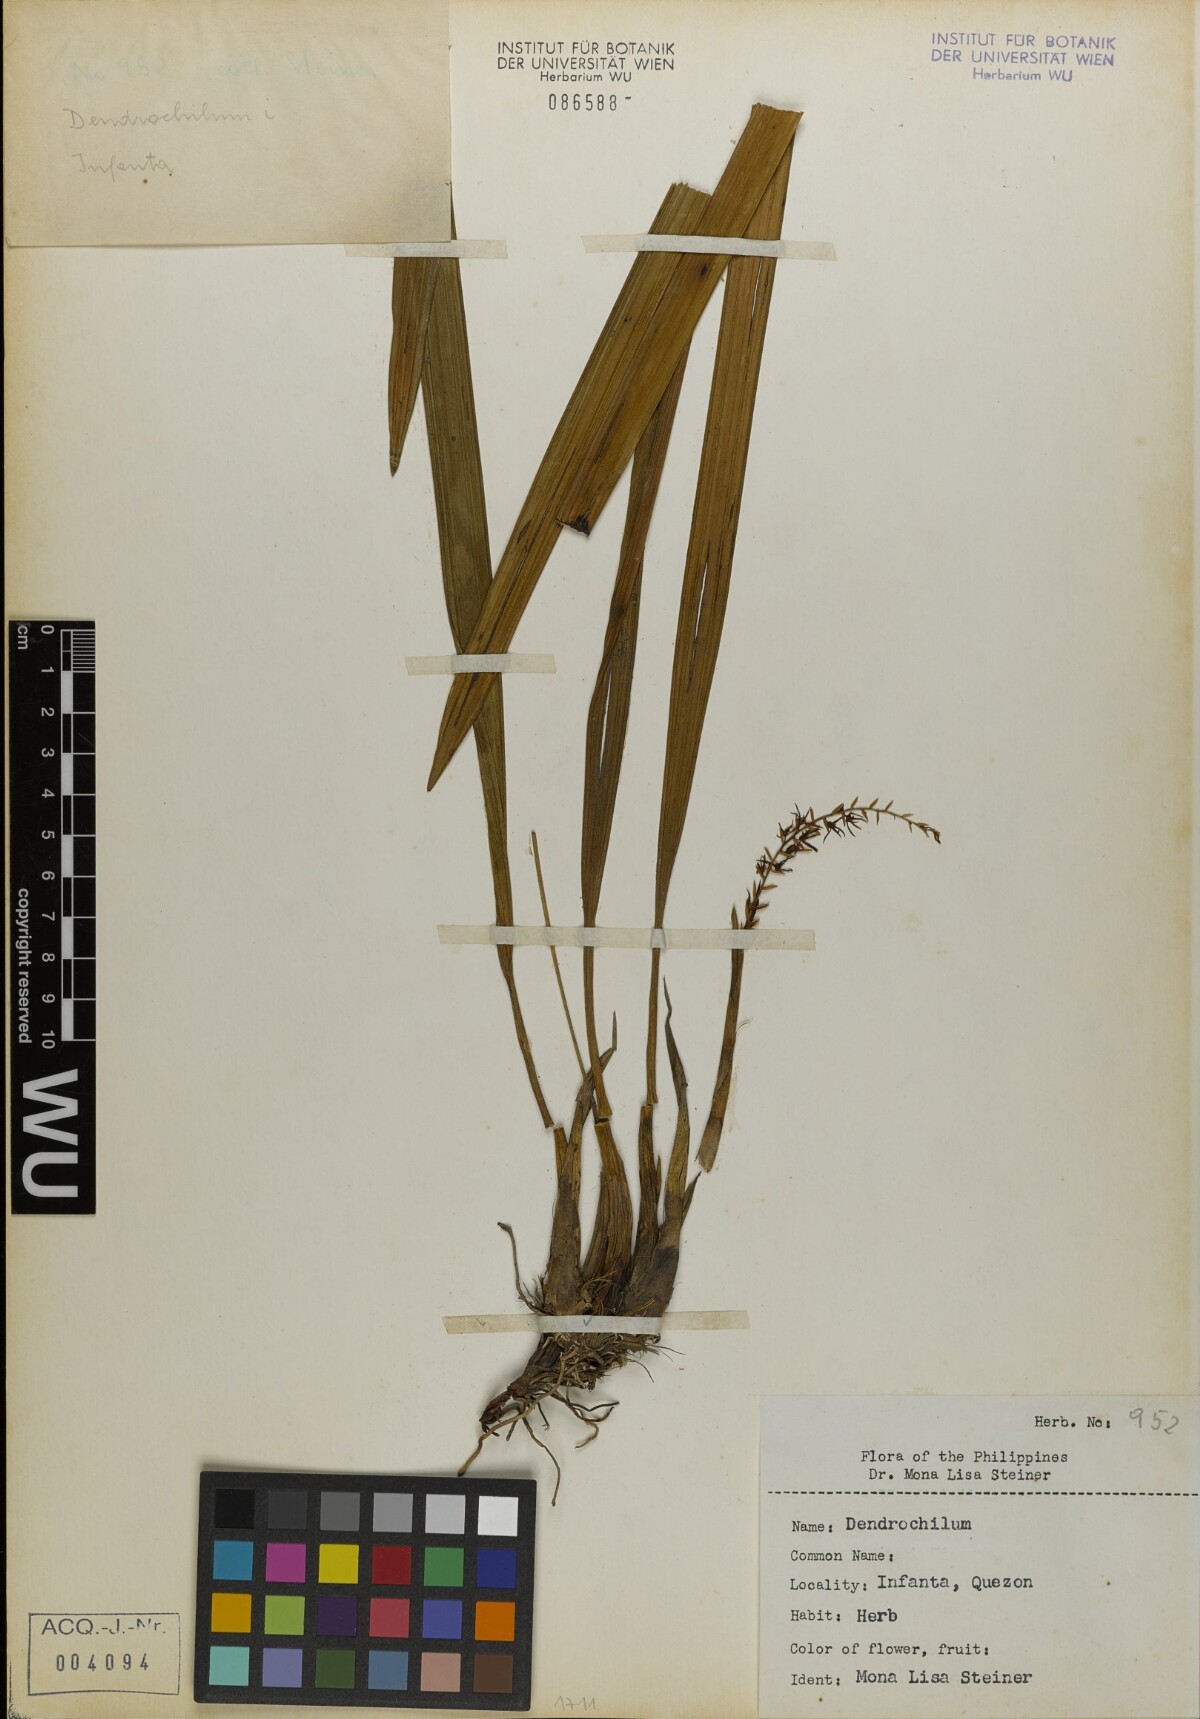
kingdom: Plantae
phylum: Tracheophyta
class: Liliopsida
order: Asparagales
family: Orchidaceae
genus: Coelogyne
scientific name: Coelogyne
